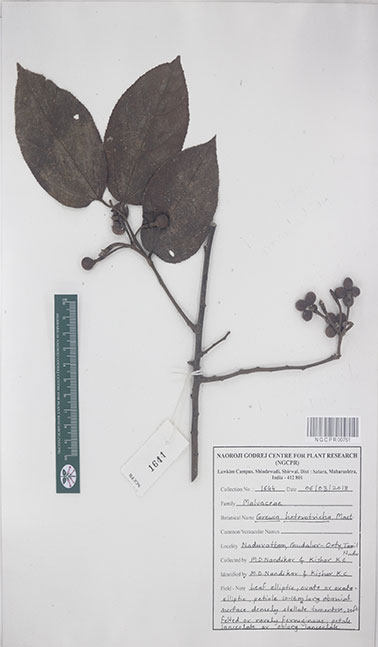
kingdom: Plantae
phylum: Tracheophyta
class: Magnoliopsida
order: Malvales
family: Malvaceae
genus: Grewia
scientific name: Grewia heterotricha
